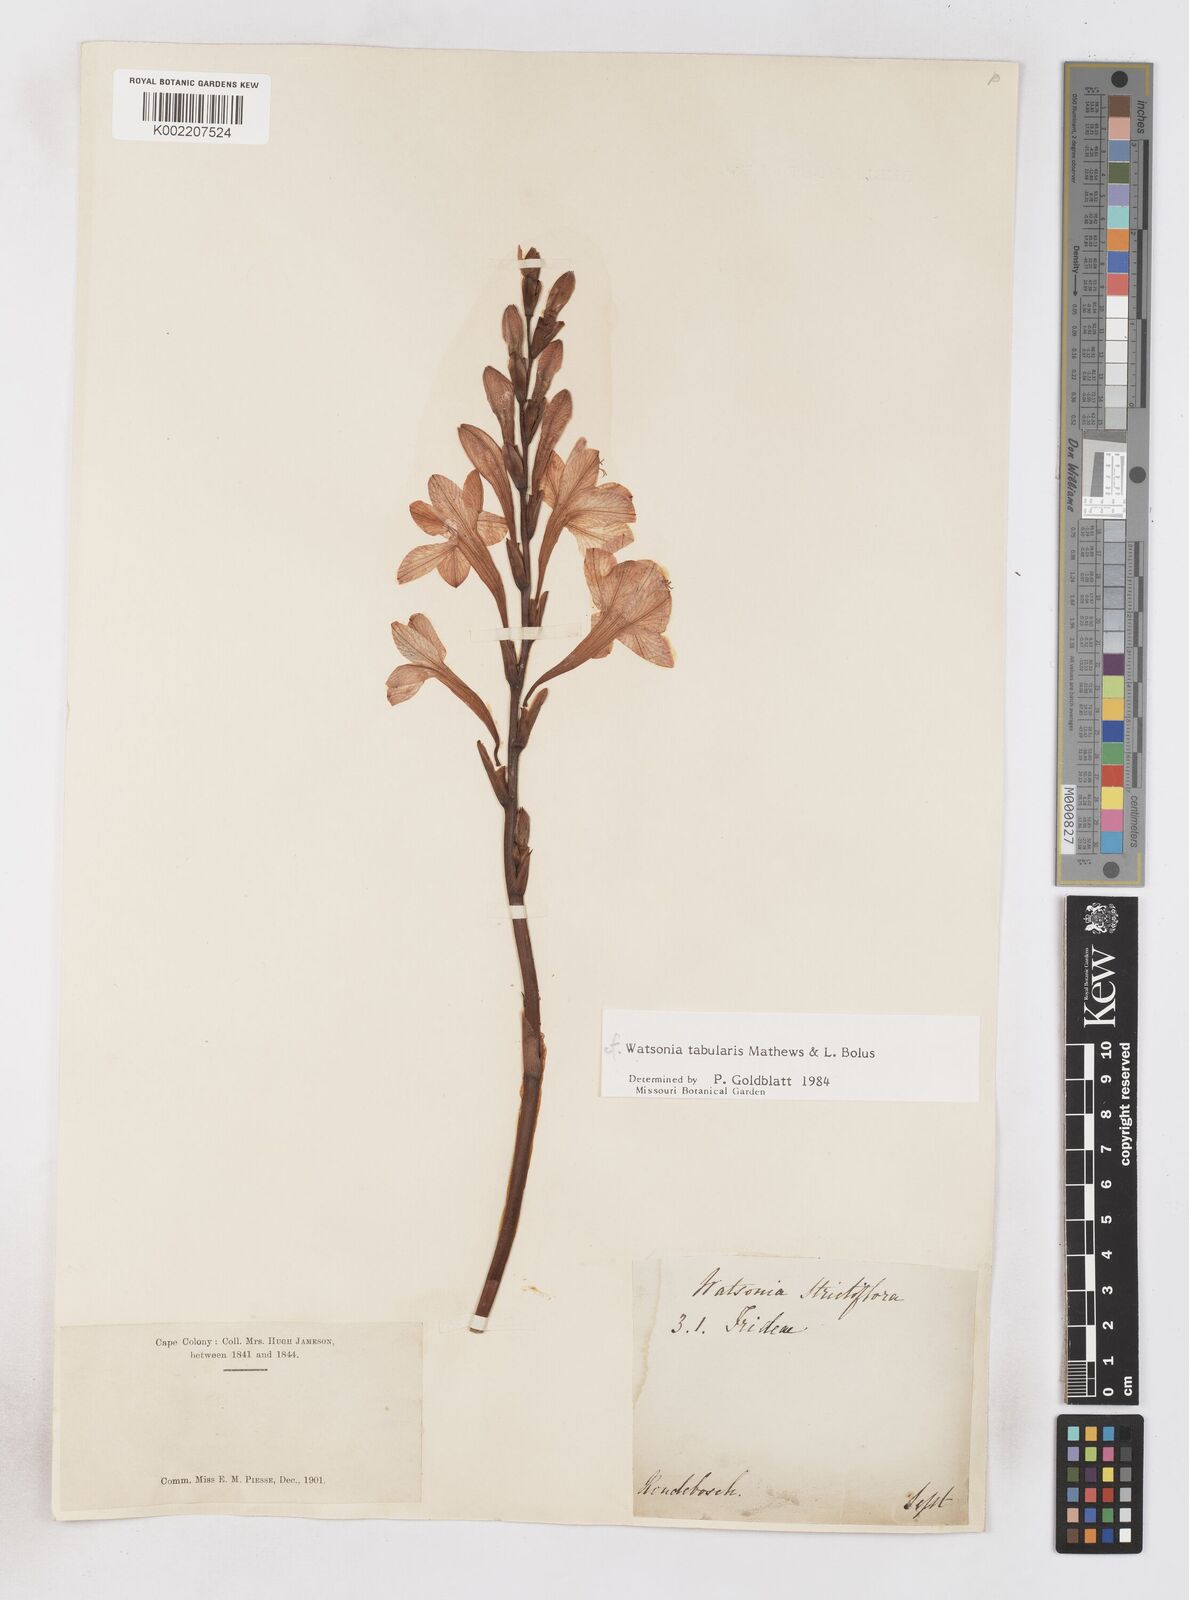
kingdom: Plantae
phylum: Tracheophyta
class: Liliopsida
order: Asparagales
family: Iridaceae
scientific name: Iridaceae
